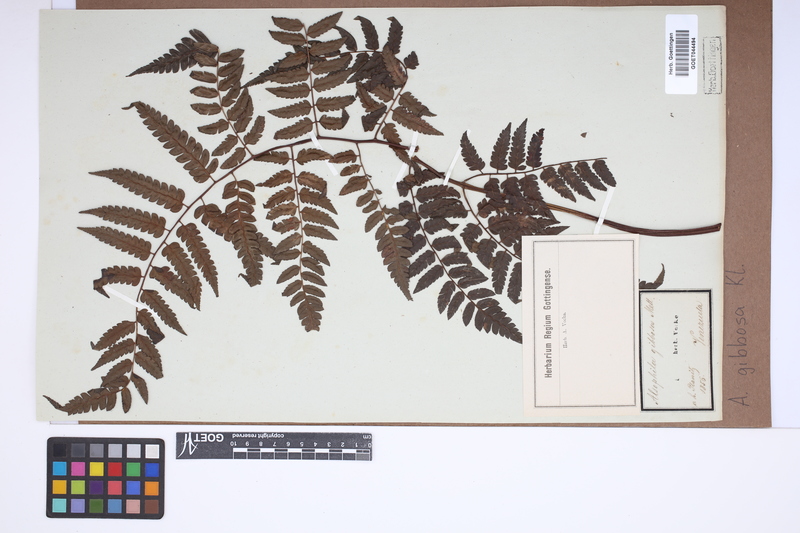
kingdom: Plantae
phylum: Tracheophyta
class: Polypodiopsida
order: Cyatheales
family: Cyatheaceae
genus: Cyathea
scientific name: Cyathea gibbosa
